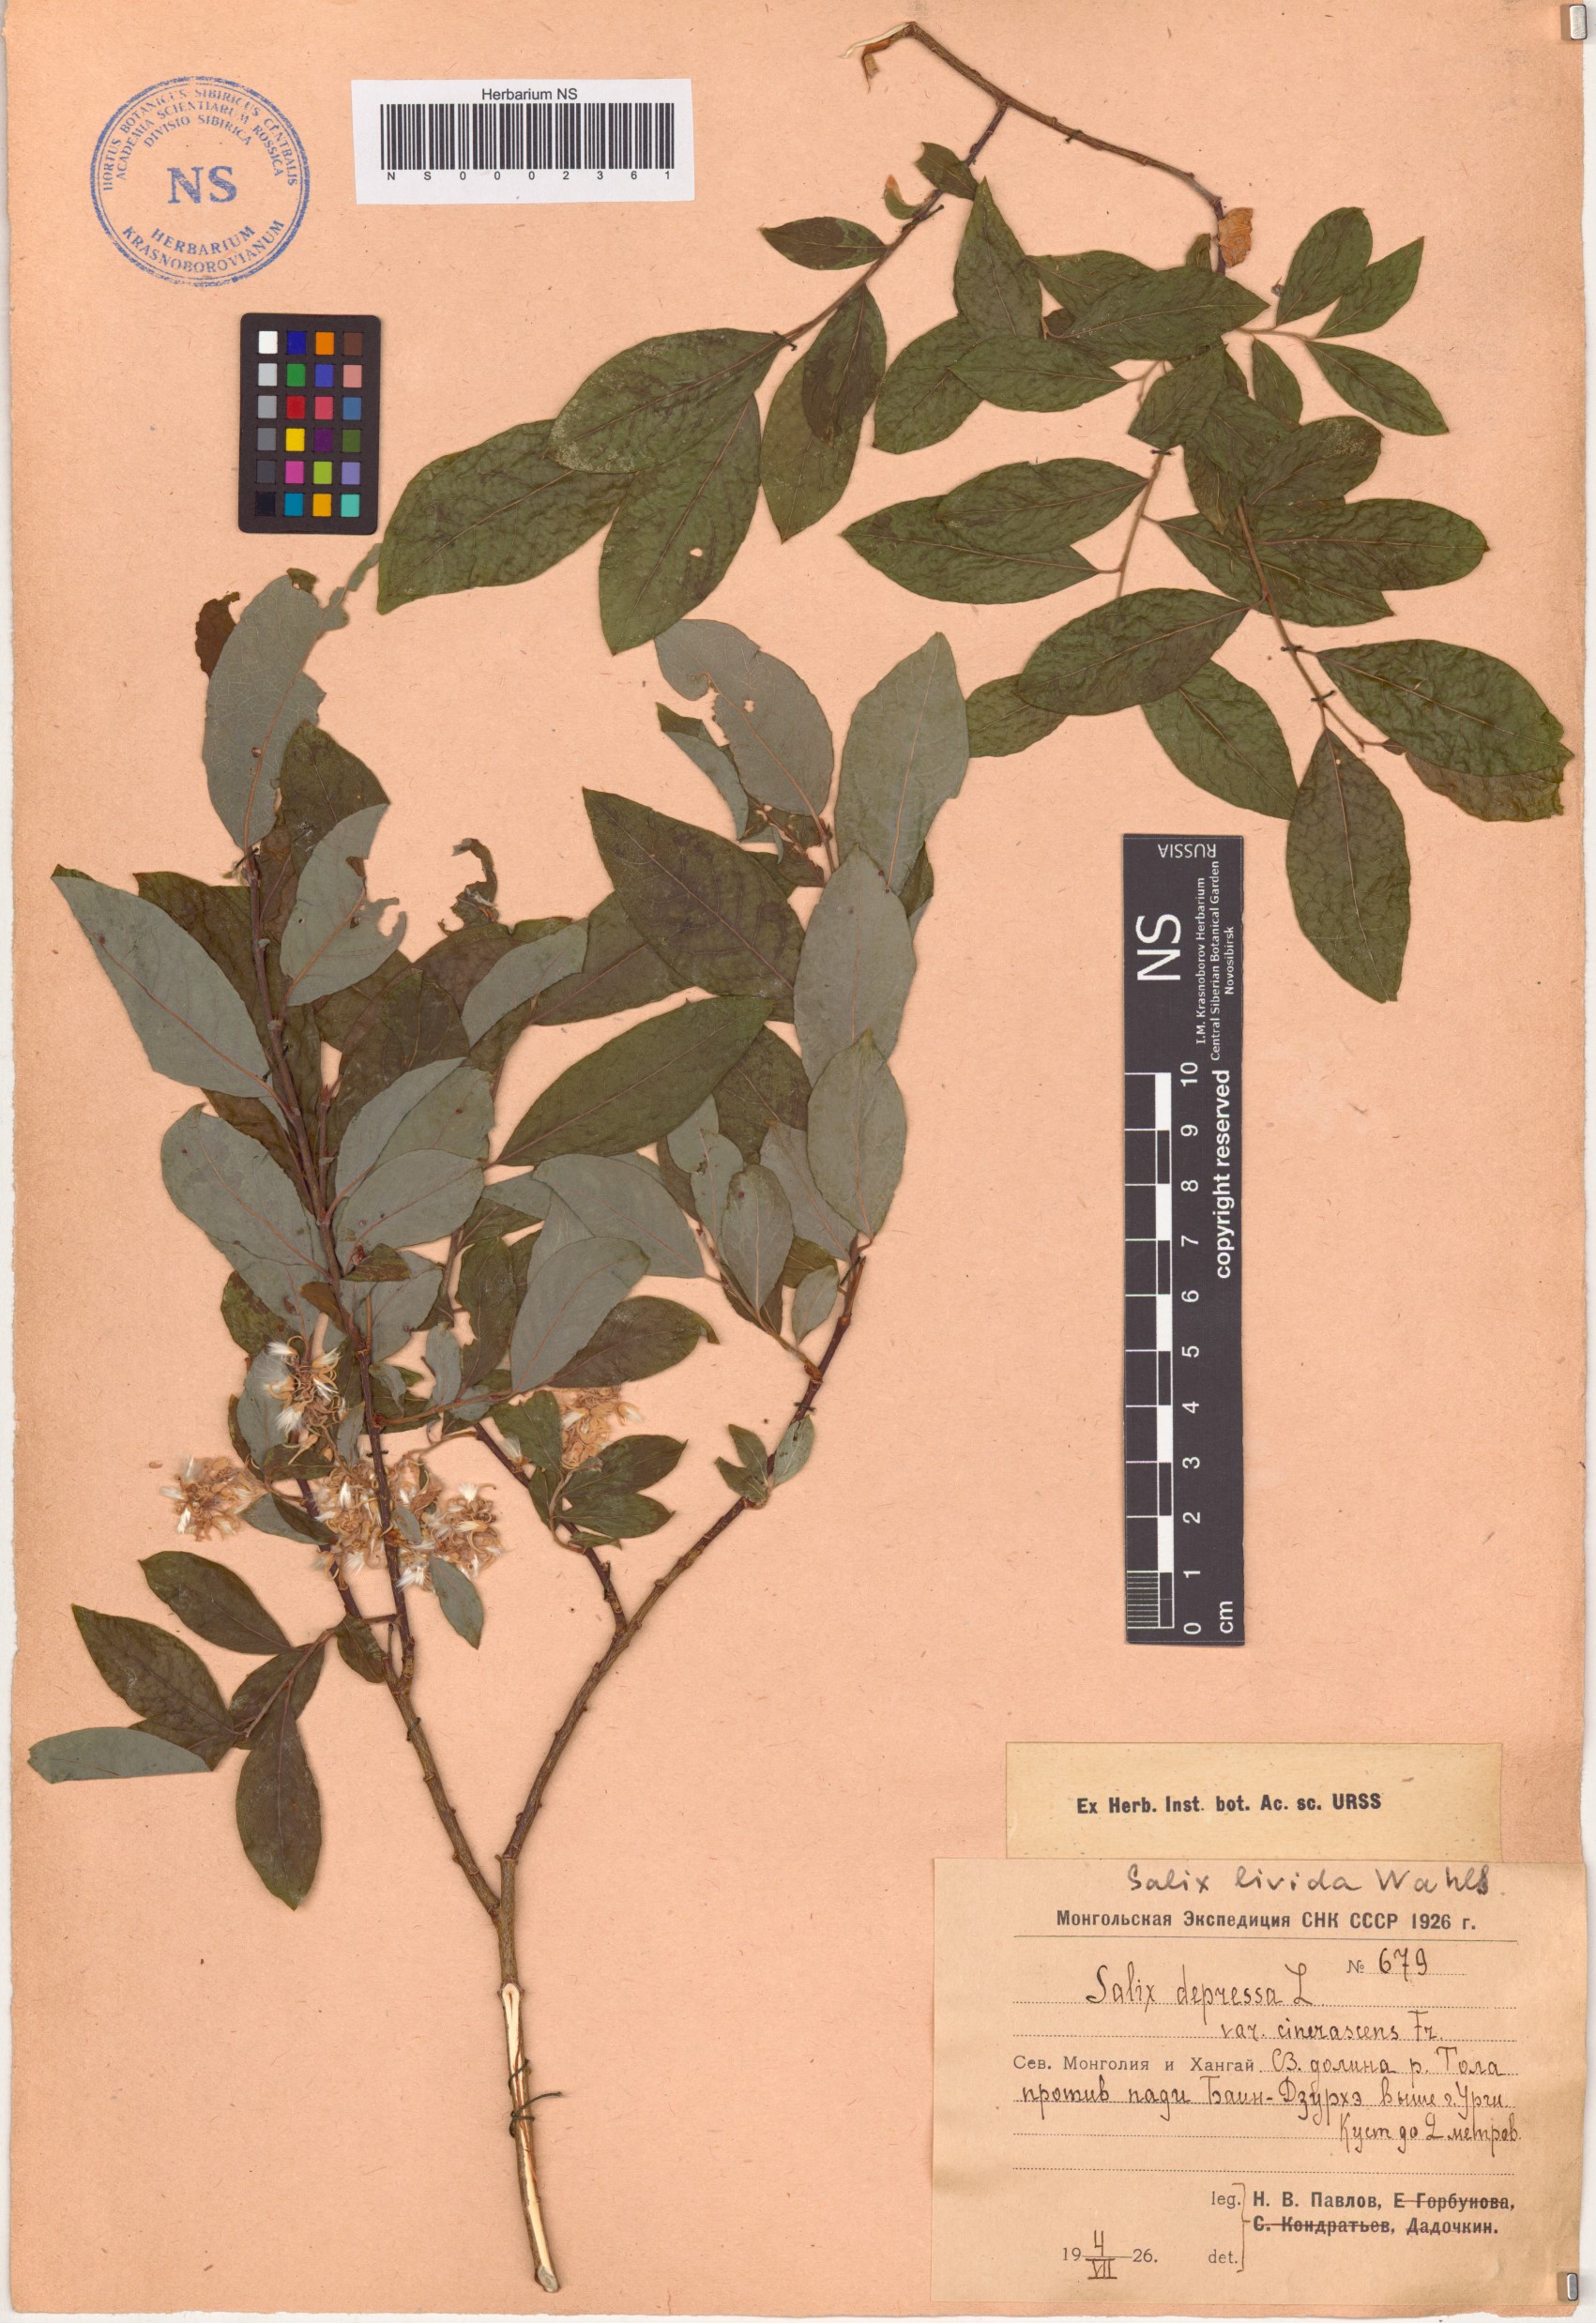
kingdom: Plantae
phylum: Tracheophyta
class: Magnoliopsida
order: Malpighiales
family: Salicaceae
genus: Salix
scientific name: Salix starkeana
